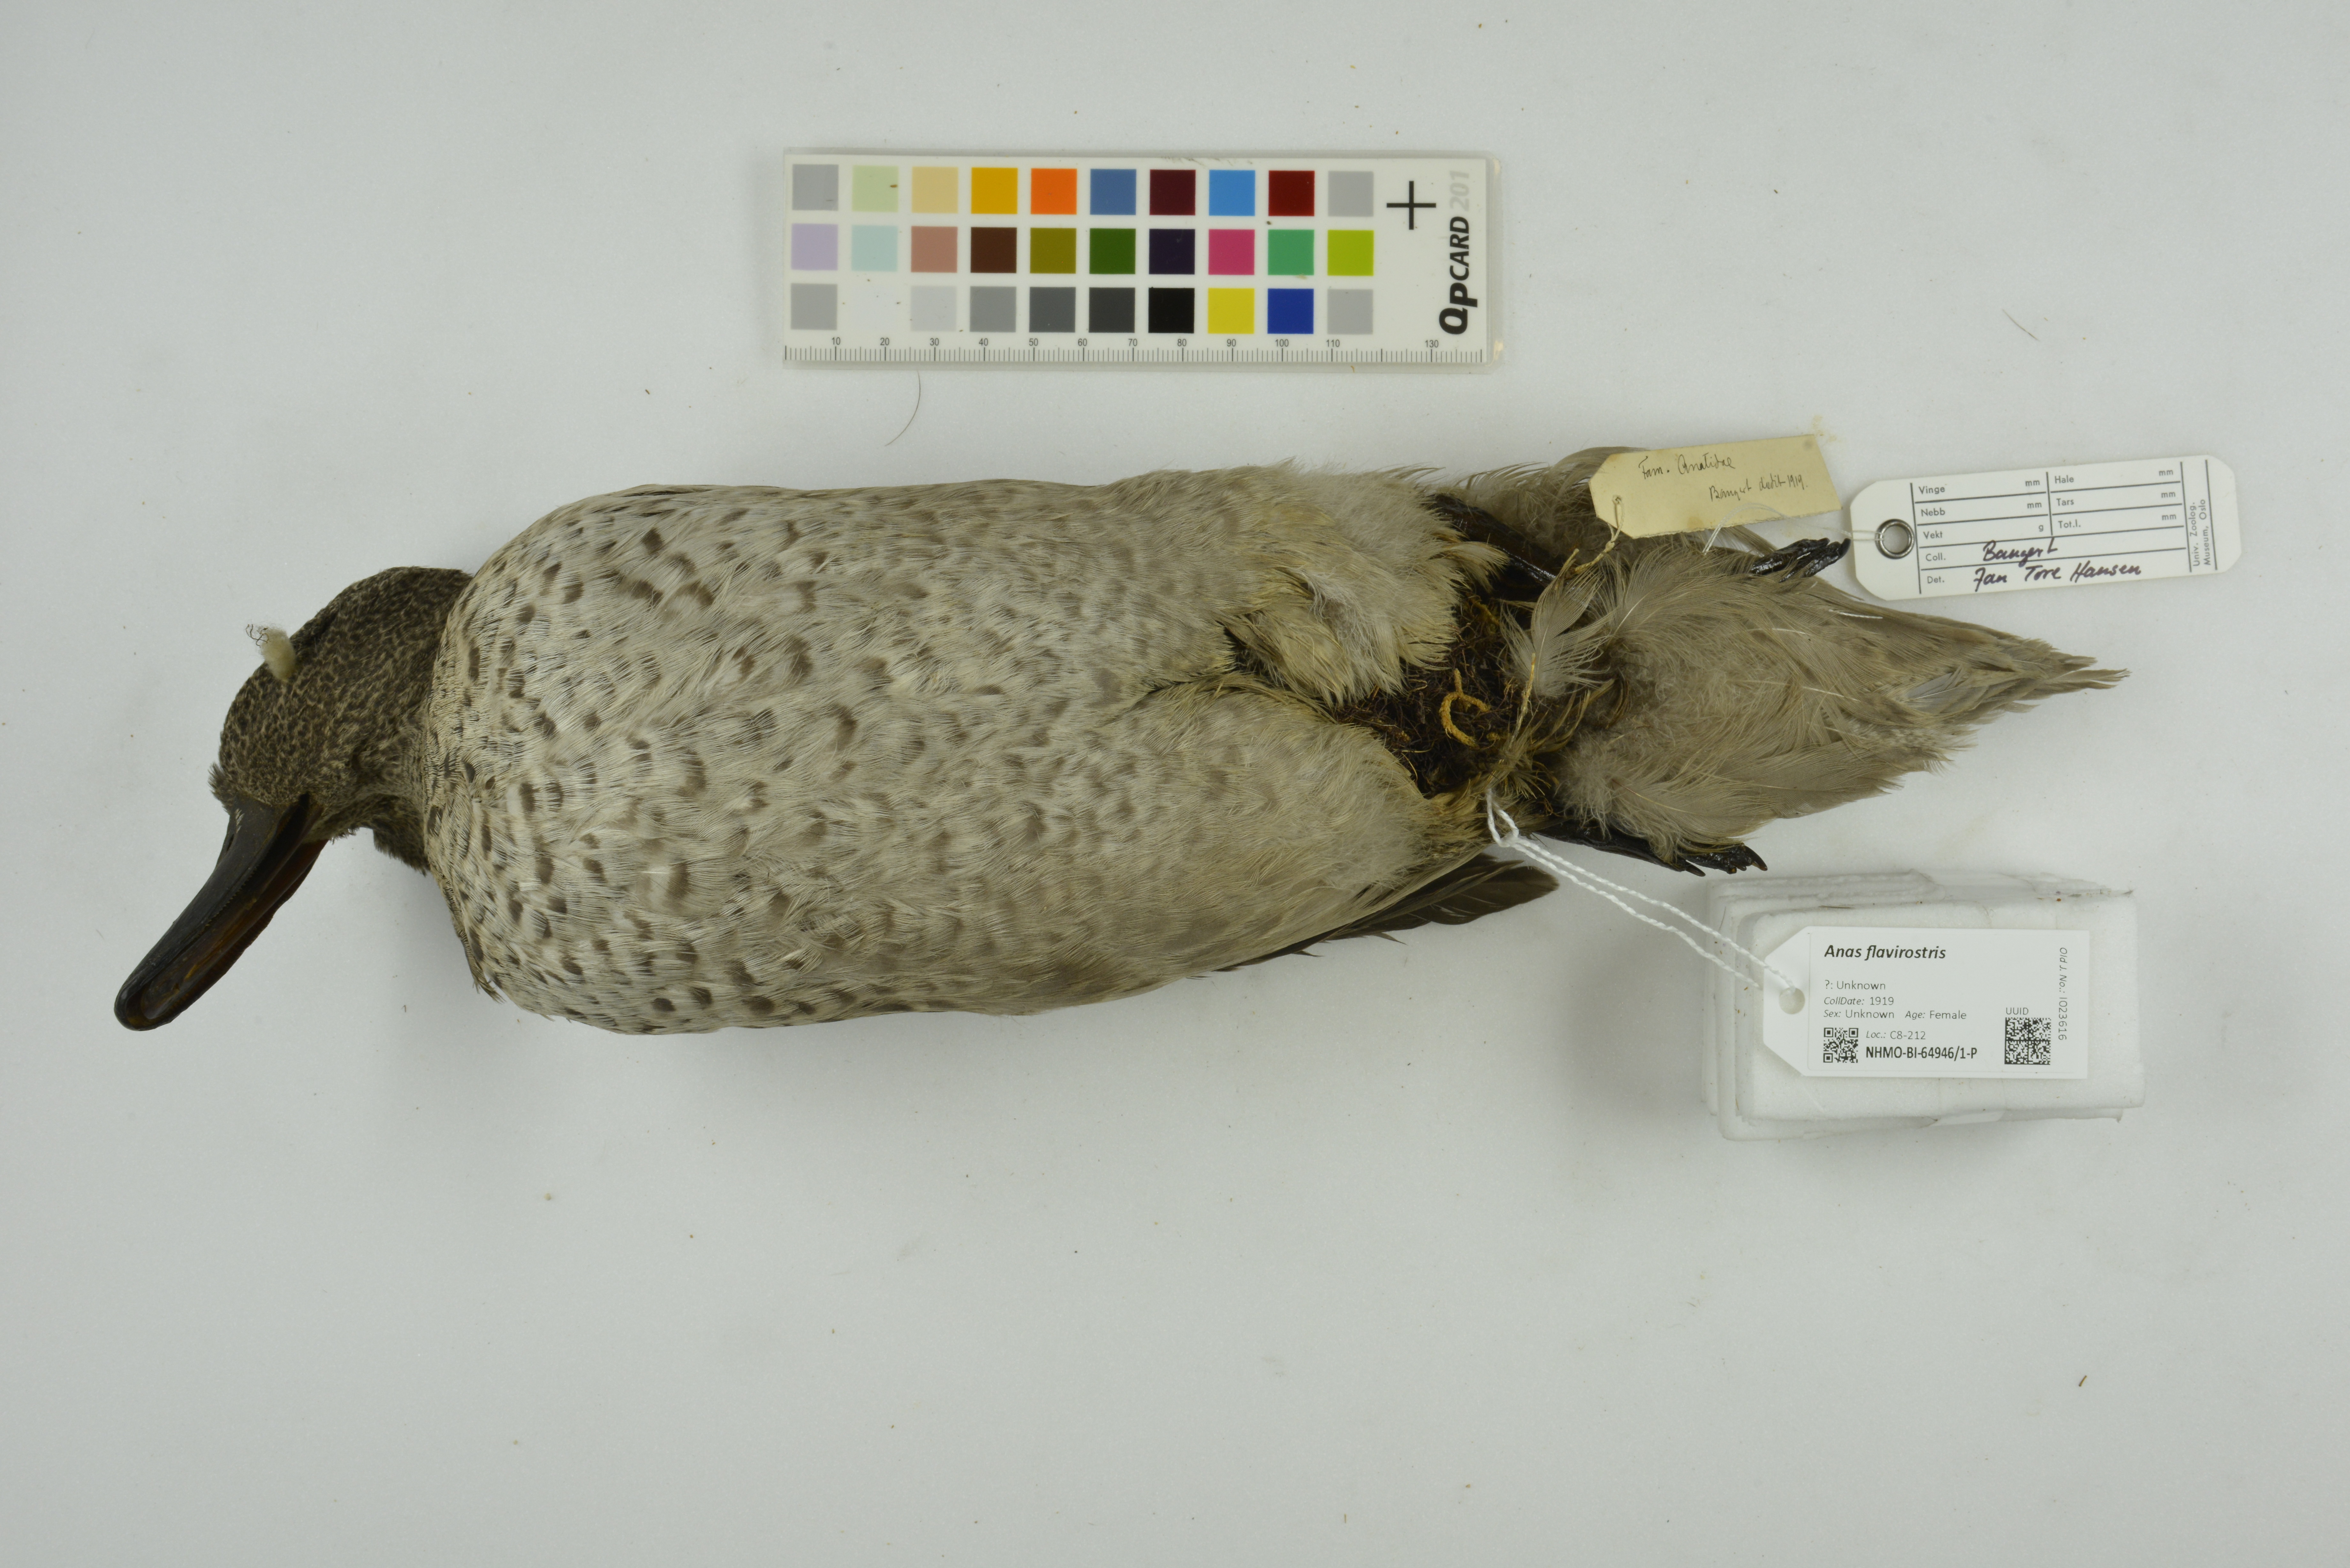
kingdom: Animalia
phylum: Chordata
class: Aves
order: Anseriformes
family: Anatidae
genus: Anas
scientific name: Anas flavirostris
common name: Yellow-billed teal
